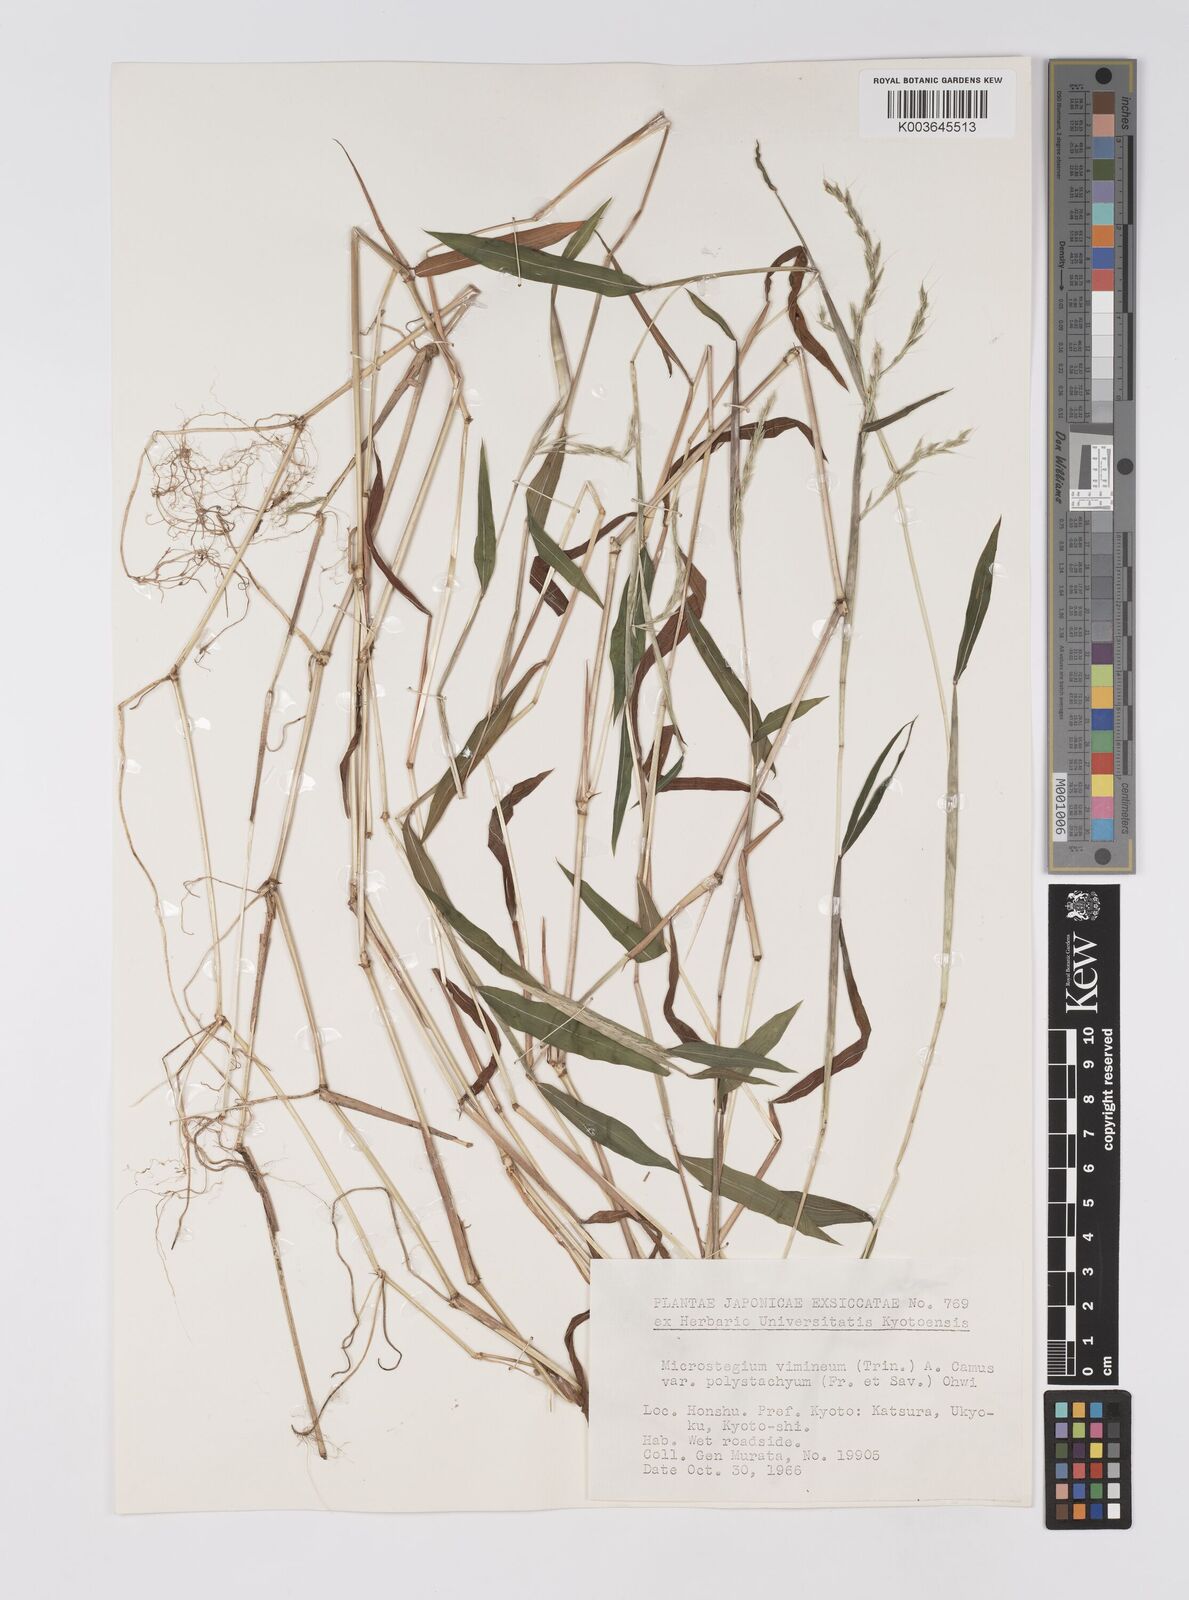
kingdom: Plantae
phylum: Tracheophyta
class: Liliopsida
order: Poales
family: Poaceae
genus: Microstegium
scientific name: Microstegium vimineum
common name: Japanese stiltgrass
